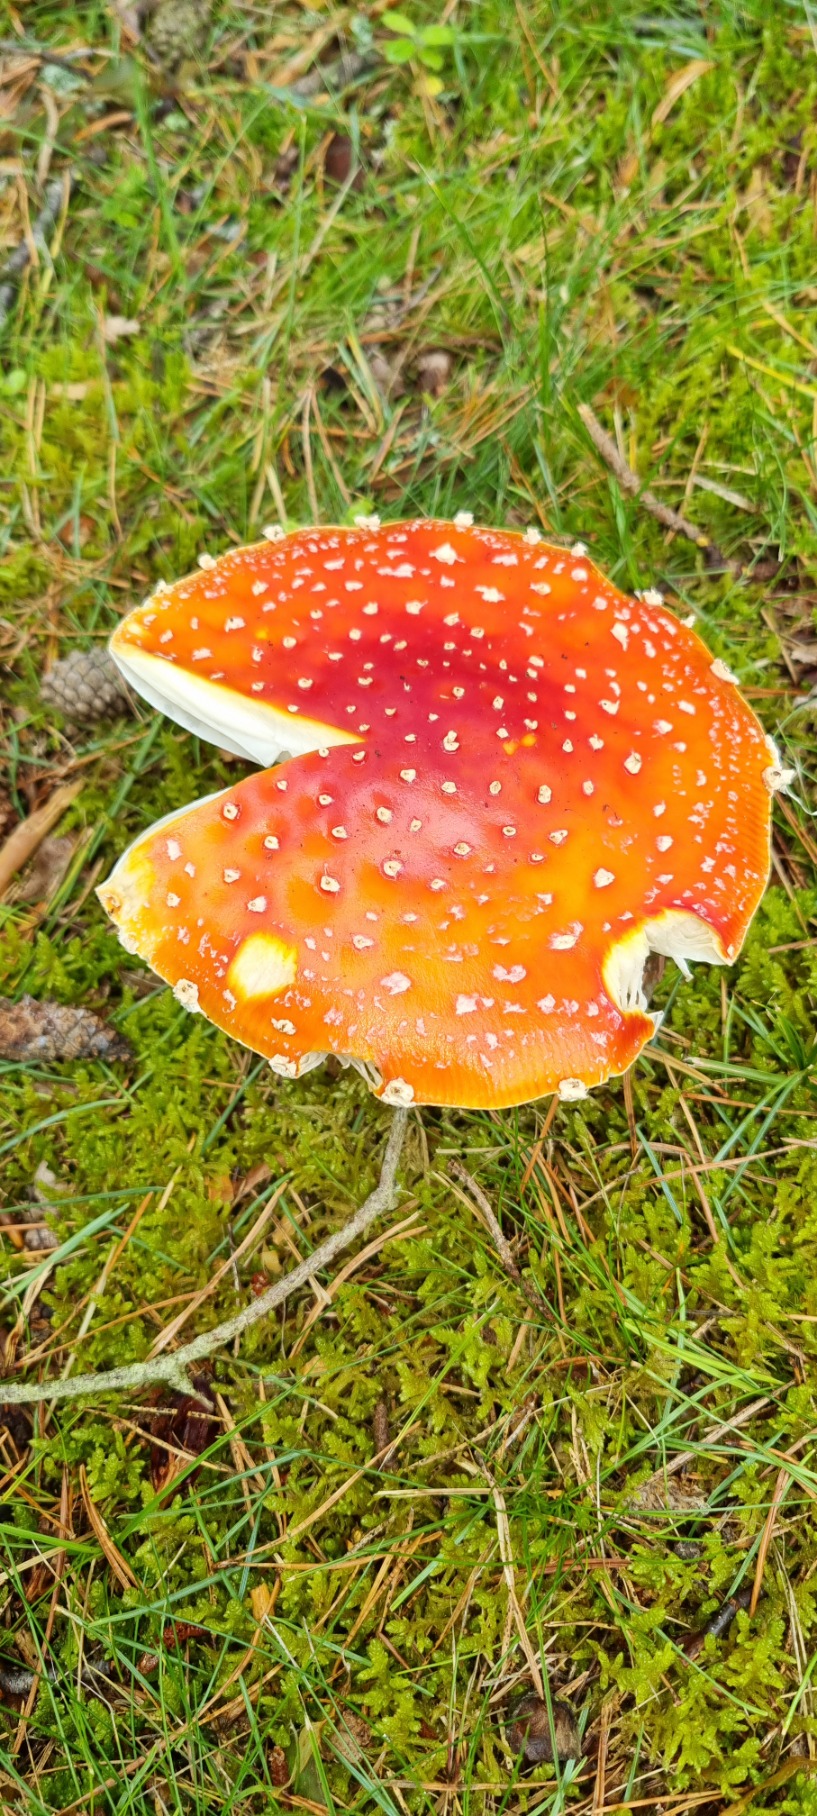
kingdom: Fungi
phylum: Basidiomycota
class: Agaricomycetes
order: Agaricales
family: Amanitaceae
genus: Amanita
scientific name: Amanita muscaria
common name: Rød fluesvamp
